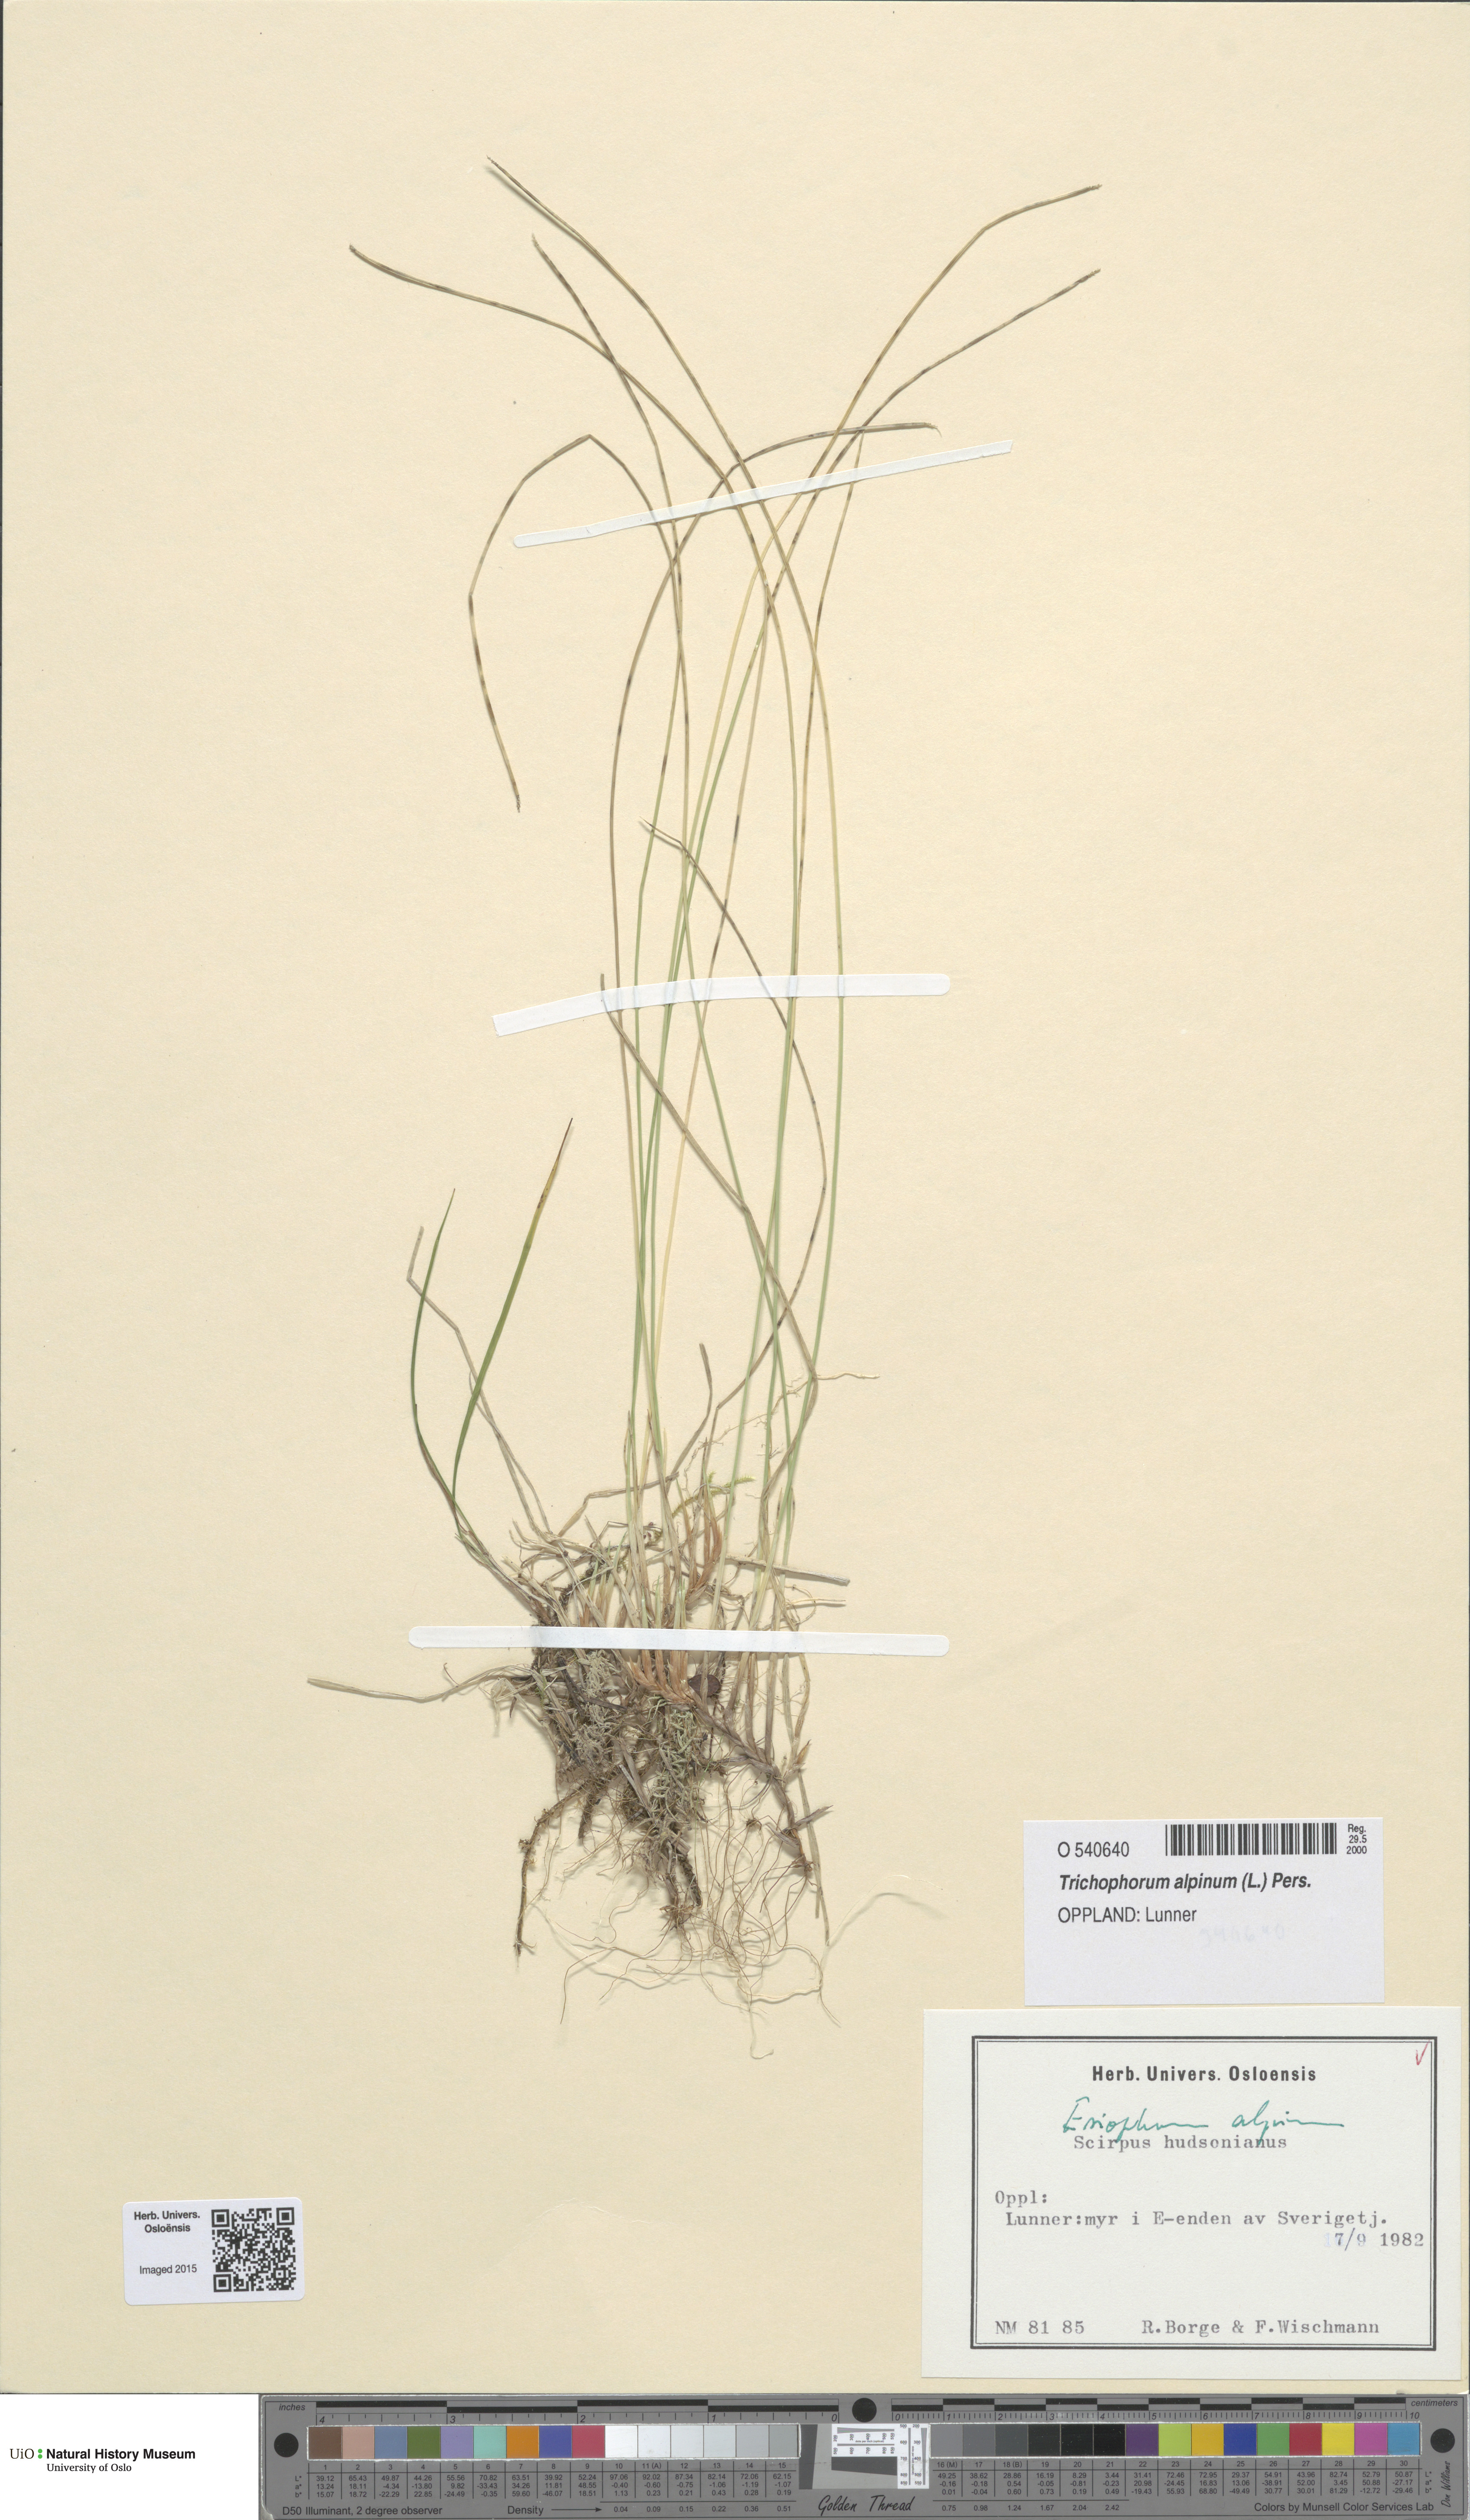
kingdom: Plantae
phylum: Tracheophyta
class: Liliopsida
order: Poales
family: Cyperaceae
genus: Trichophorum
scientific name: Trichophorum alpinum
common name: Alpine bulrush
